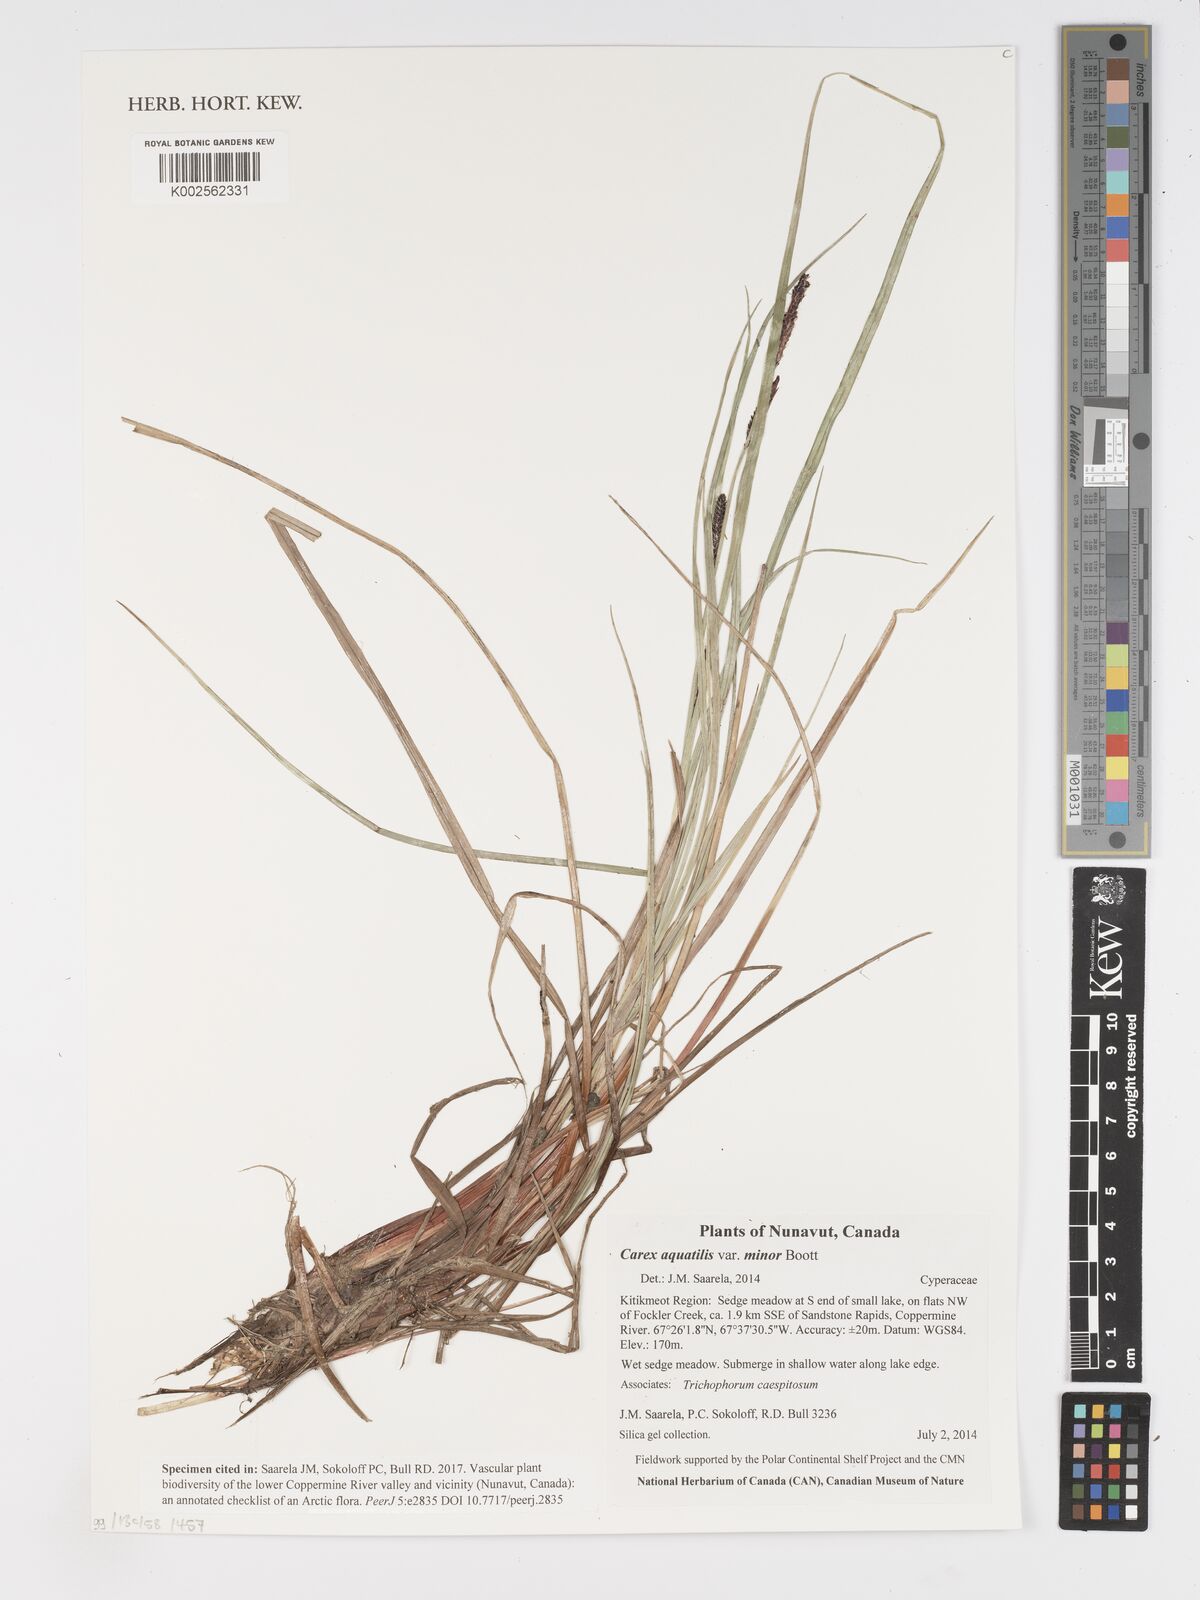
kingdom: Plantae
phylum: Tracheophyta
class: Liliopsida
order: Poales
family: Cyperaceae
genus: Carex
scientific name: Carex aquatilis
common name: Water sedge
